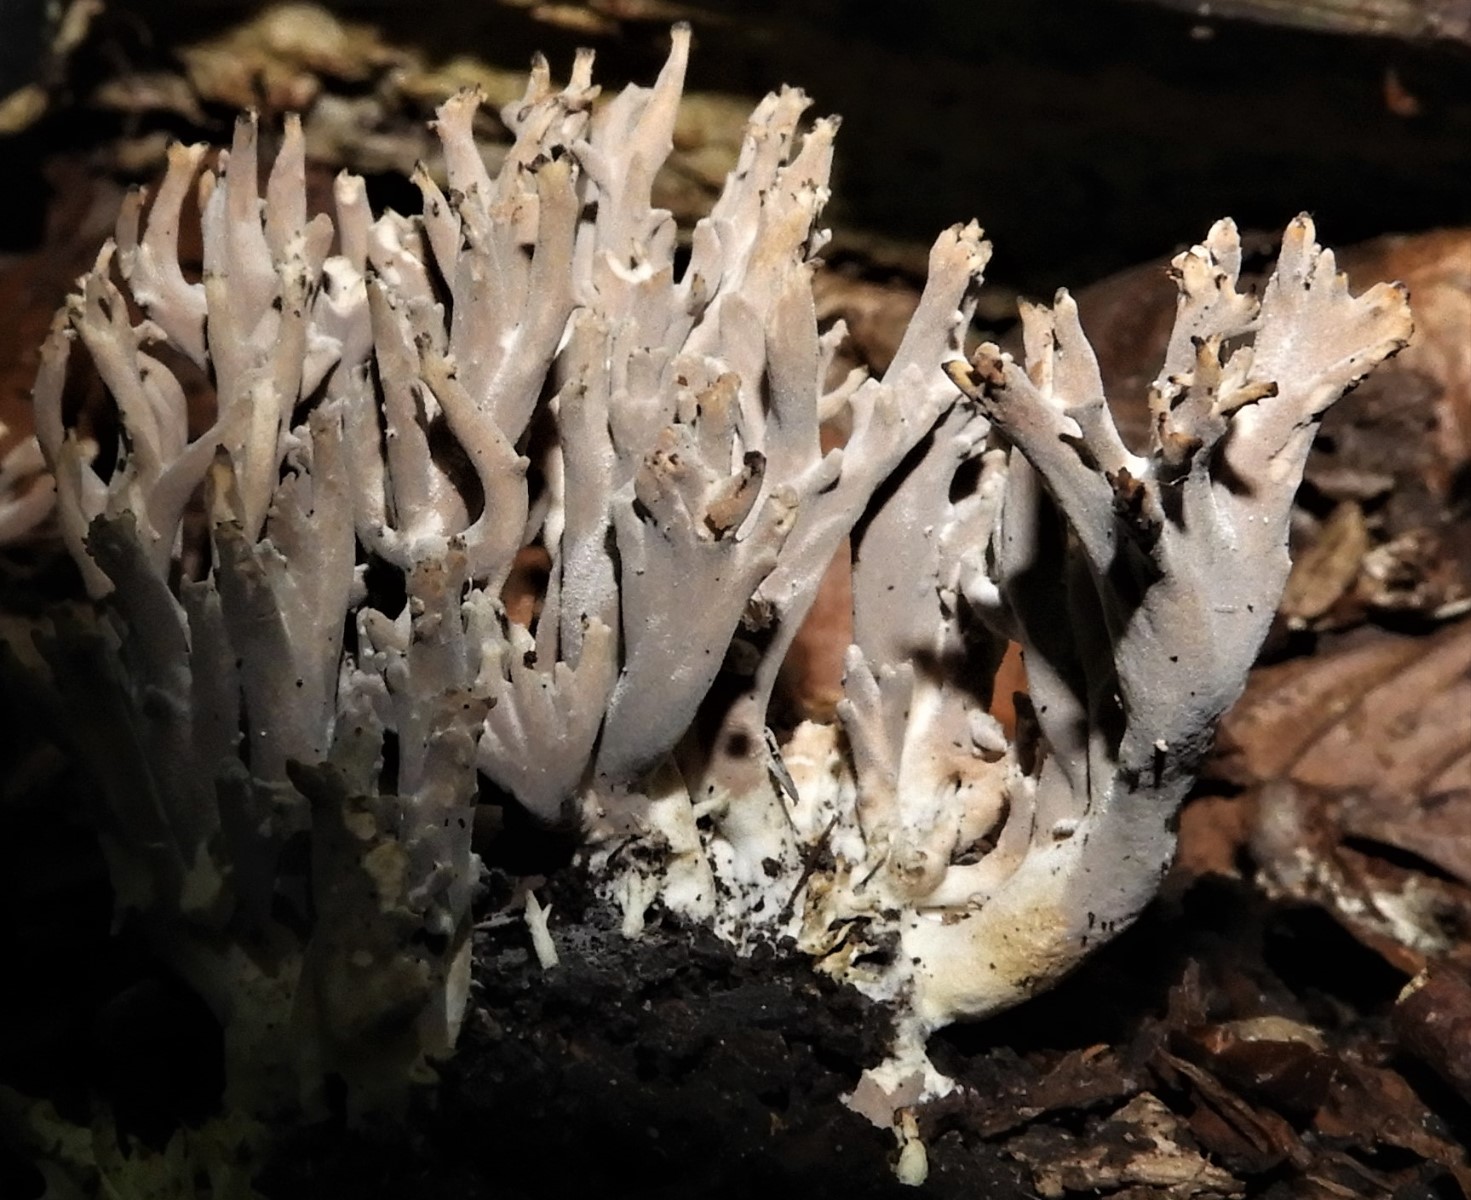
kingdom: Fungi
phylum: Ascomycota
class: Sordariomycetes
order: Xylariales
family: Xylariaceae
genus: Xylaria
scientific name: Xylaria hypoxylon
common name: grenet stødsvamp
